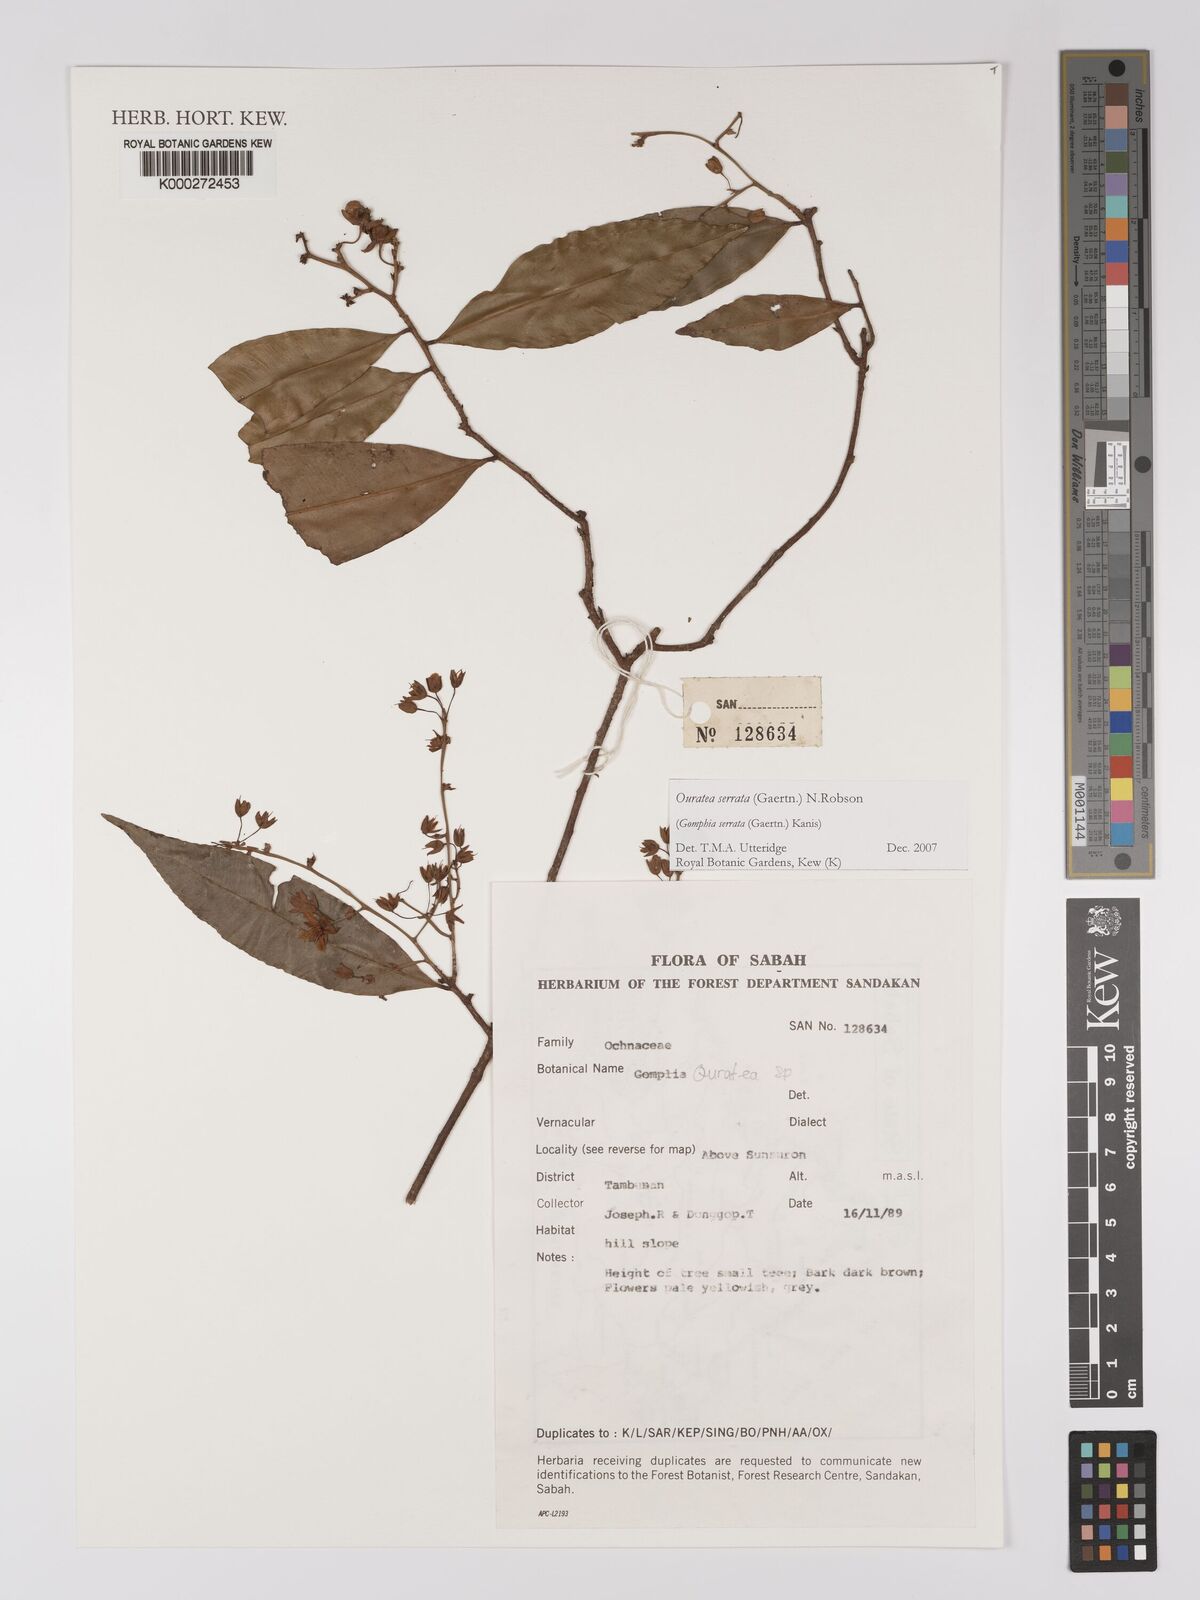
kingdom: Plantae
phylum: Tracheophyta
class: Magnoliopsida
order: Malpighiales
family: Ochnaceae
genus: Gomphia
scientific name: Gomphia serrata
